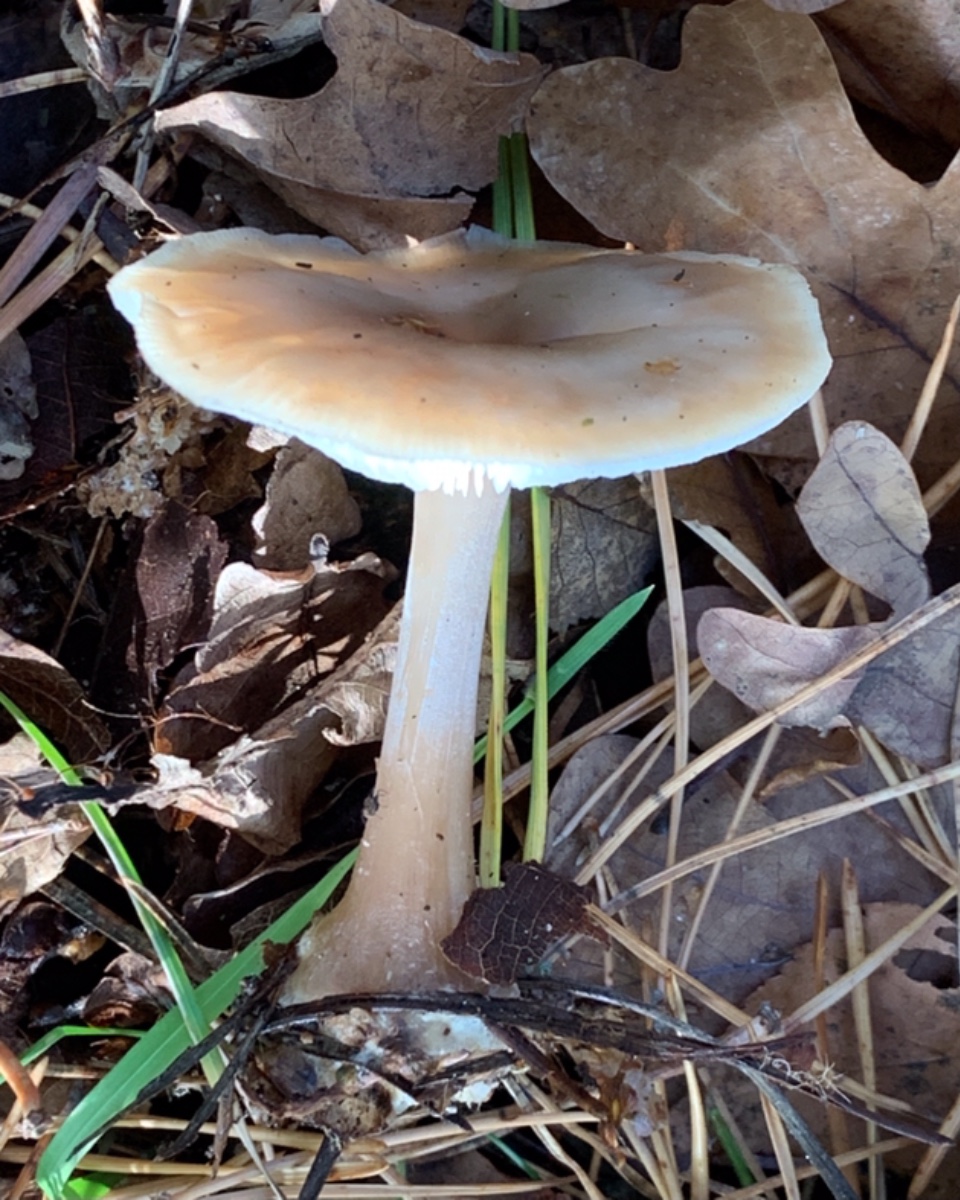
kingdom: Fungi
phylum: Basidiomycota
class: Agaricomycetes
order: Agaricales
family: Omphalotaceae
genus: Rhodocollybia
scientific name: Rhodocollybia asema
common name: horngrå fladhat
